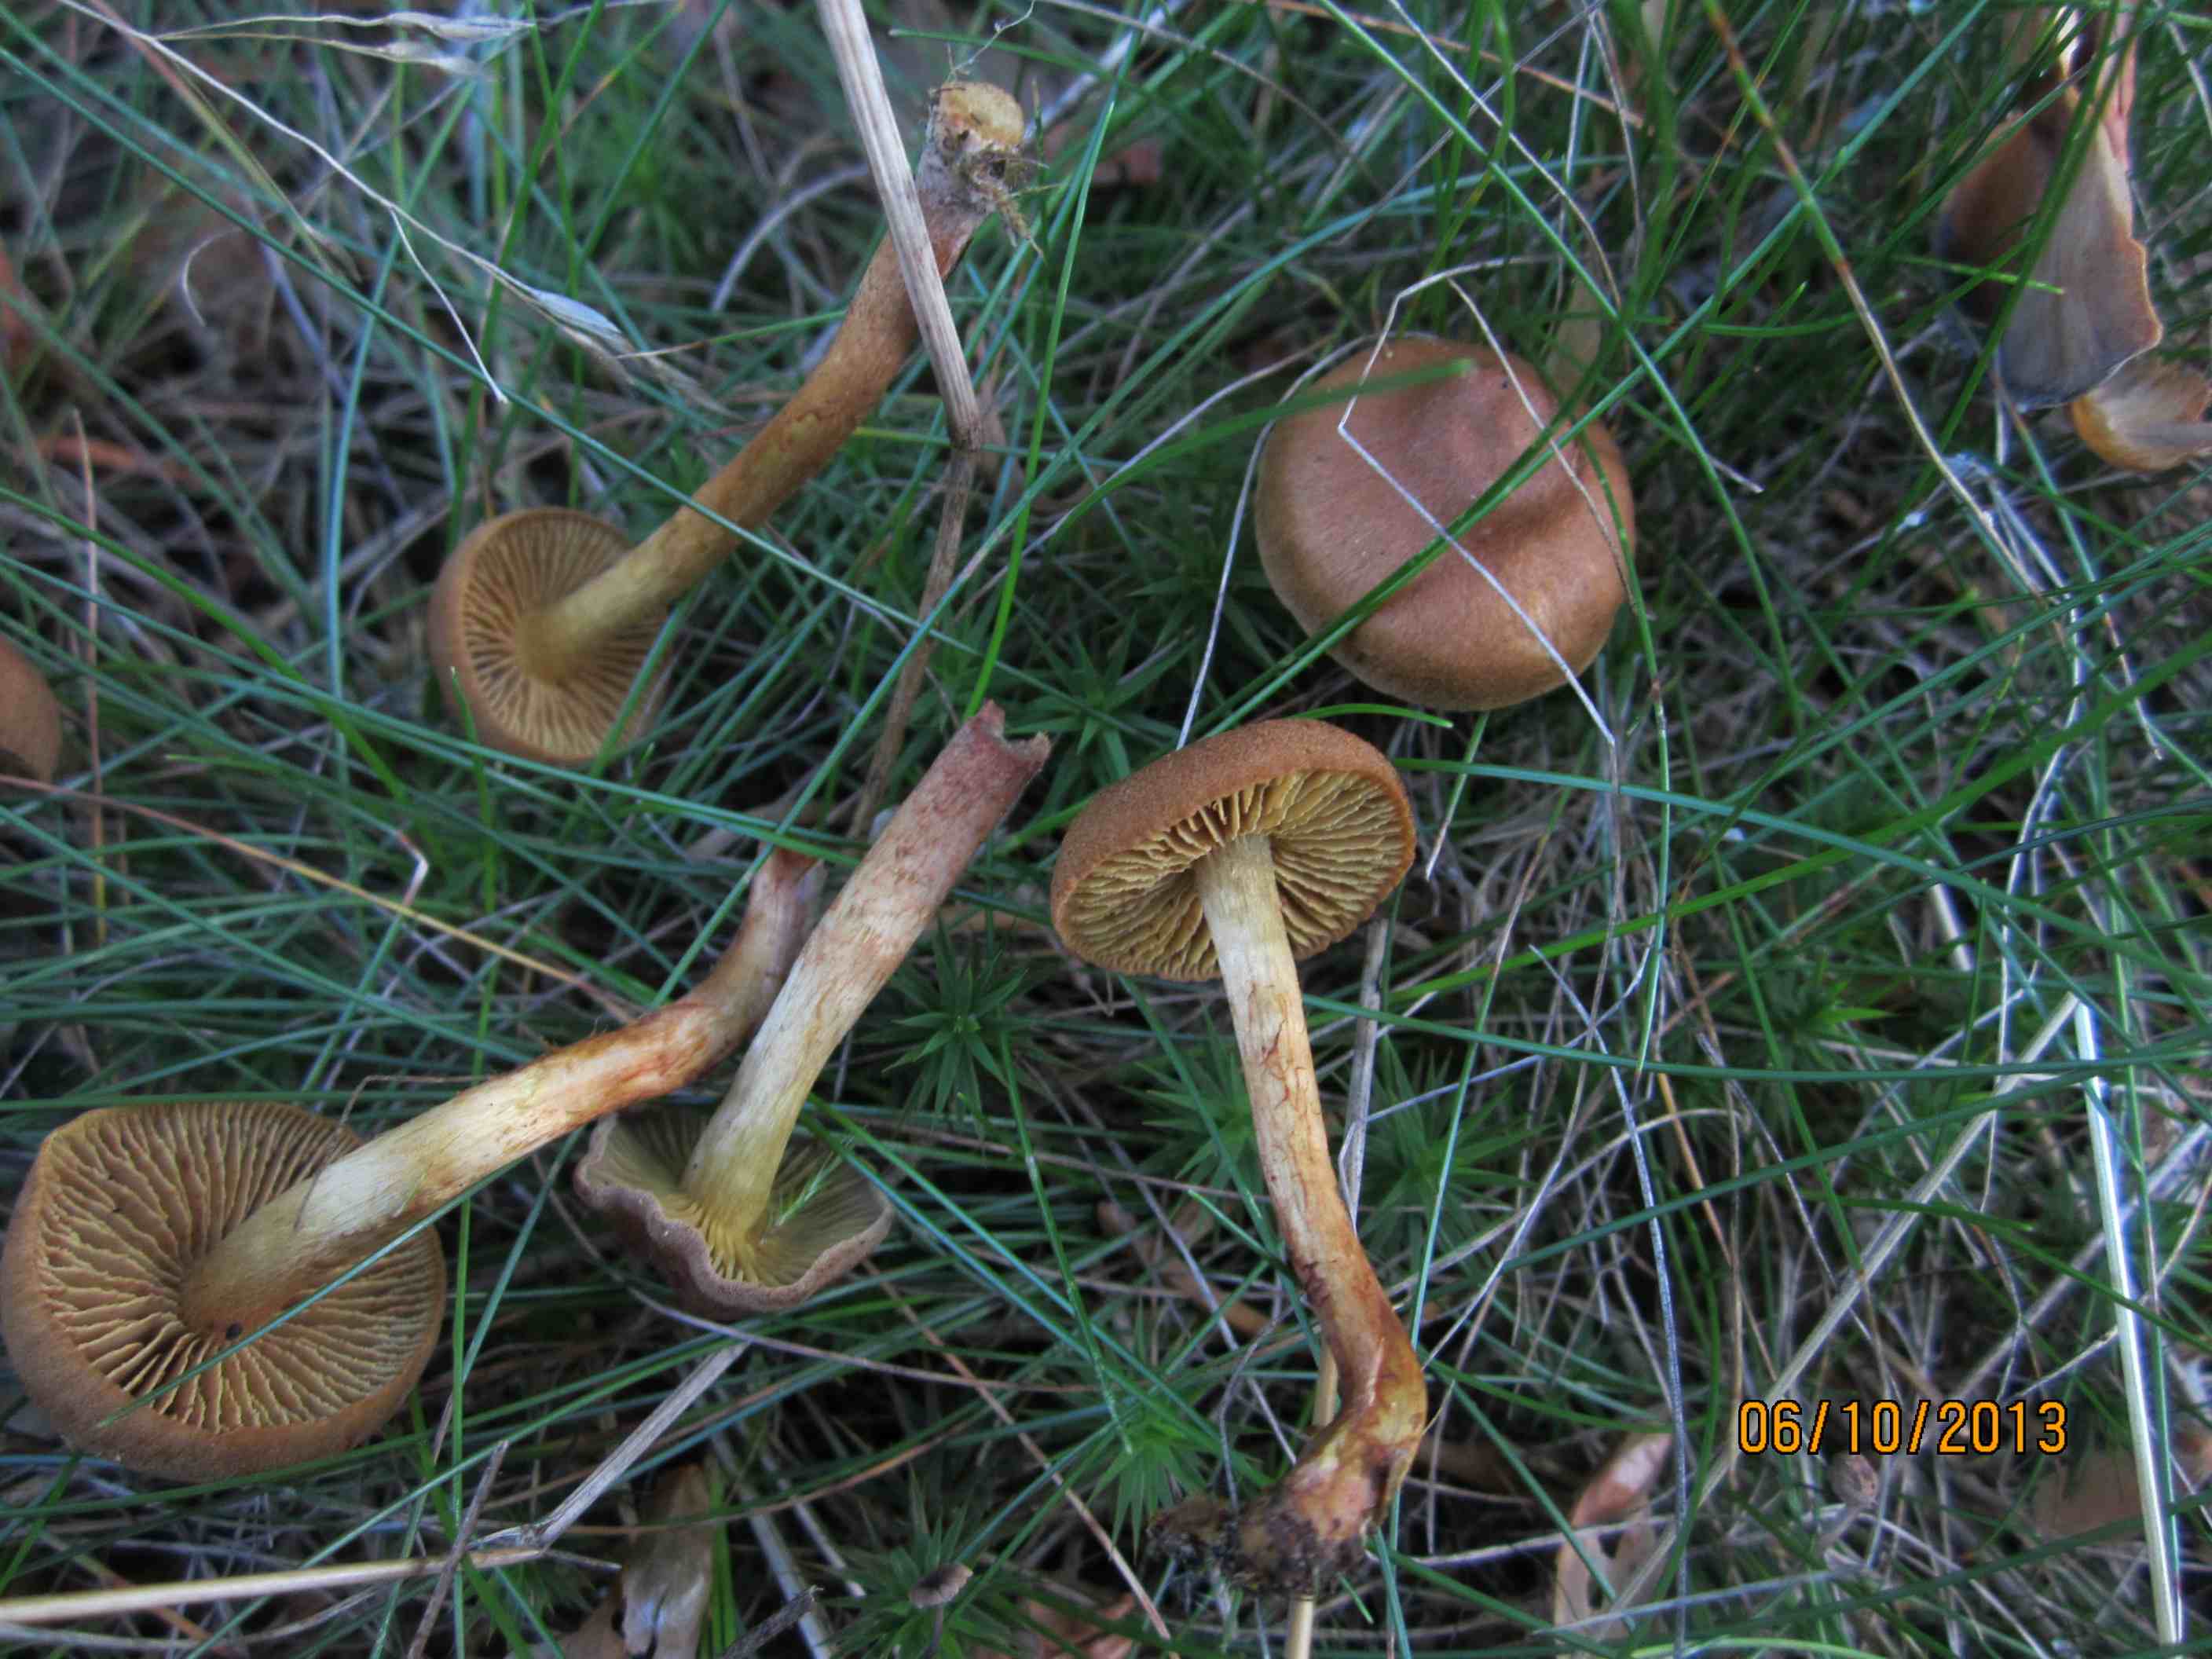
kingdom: Fungi
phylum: Basidiomycota
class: Agaricomycetes
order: Agaricales
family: Cortinariaceae
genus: Cortinarius
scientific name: Cortinarius
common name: gulbladet slørhat
